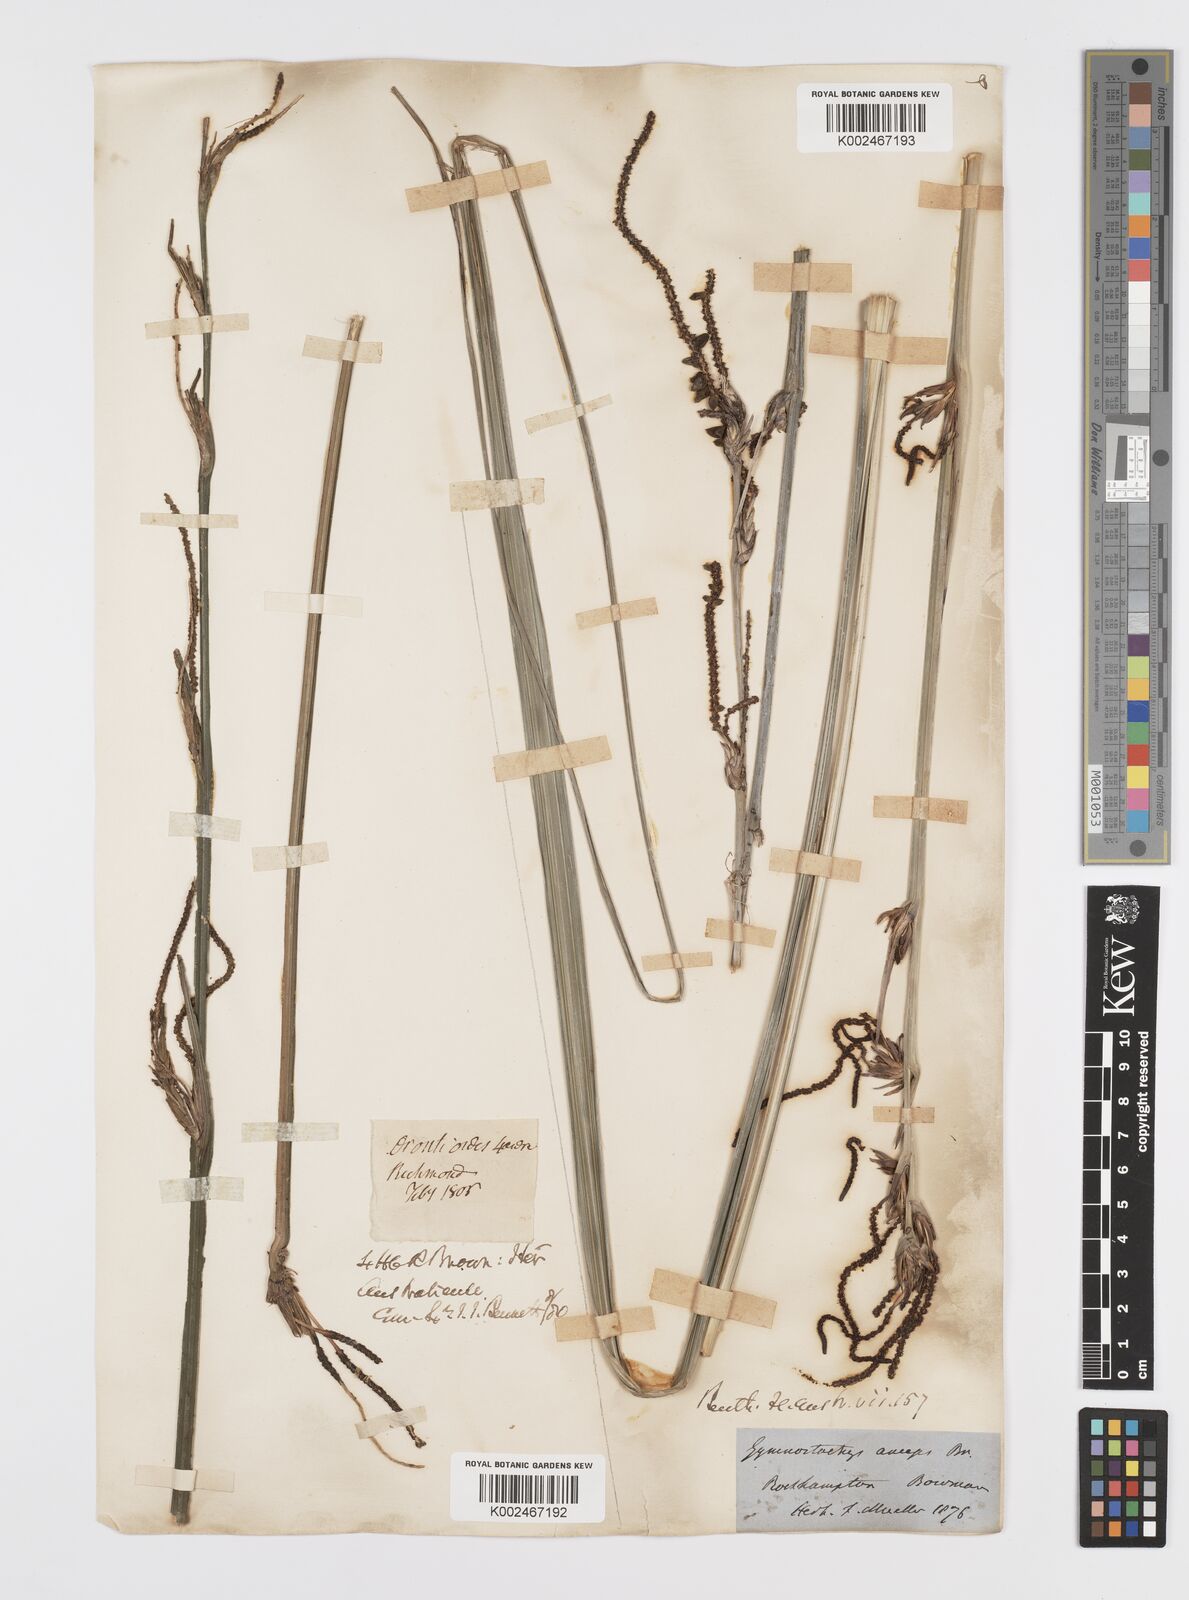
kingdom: Plantae
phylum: Tracheophyta
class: Liliopsida
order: Alismatales
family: Araceae
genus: Gymnostachys
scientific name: Gymnostachys anceps
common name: Settler's-flax
